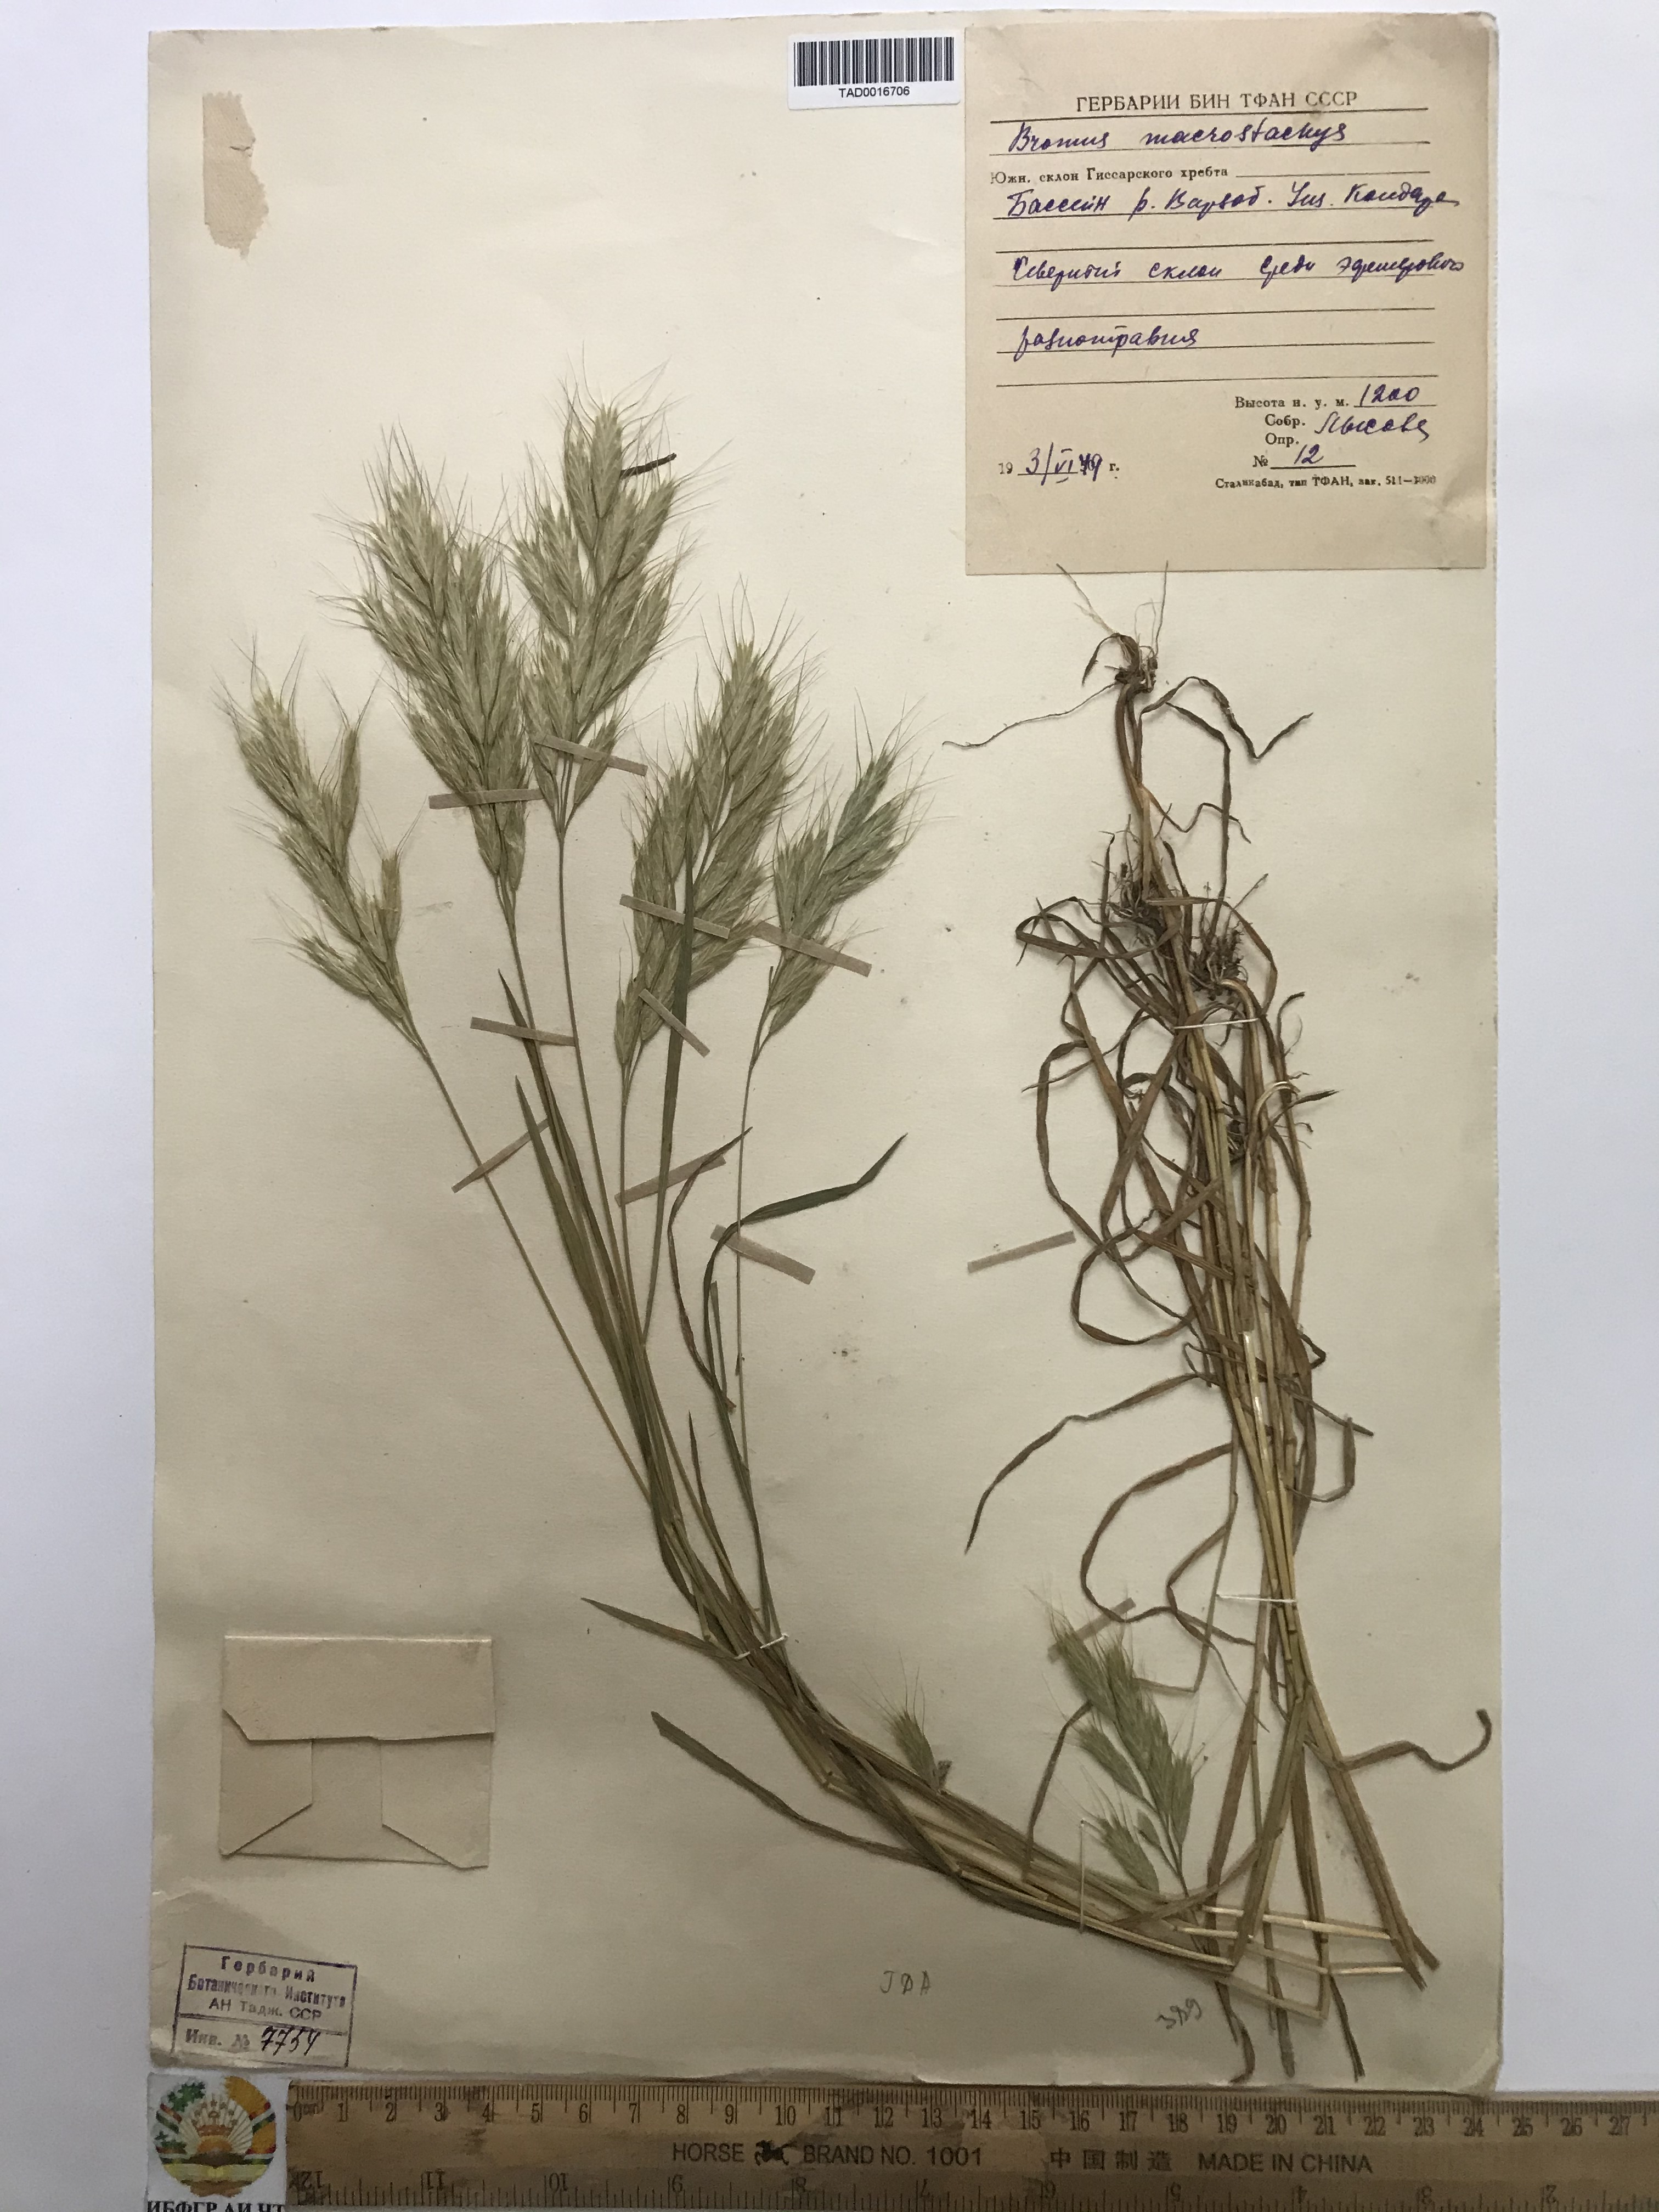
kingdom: Plantae
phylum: Tracheophyta
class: Liliopsida
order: Poales
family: Poaceae
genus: Bromus
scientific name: Bromus lanceolatus
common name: Mediterranean brome
